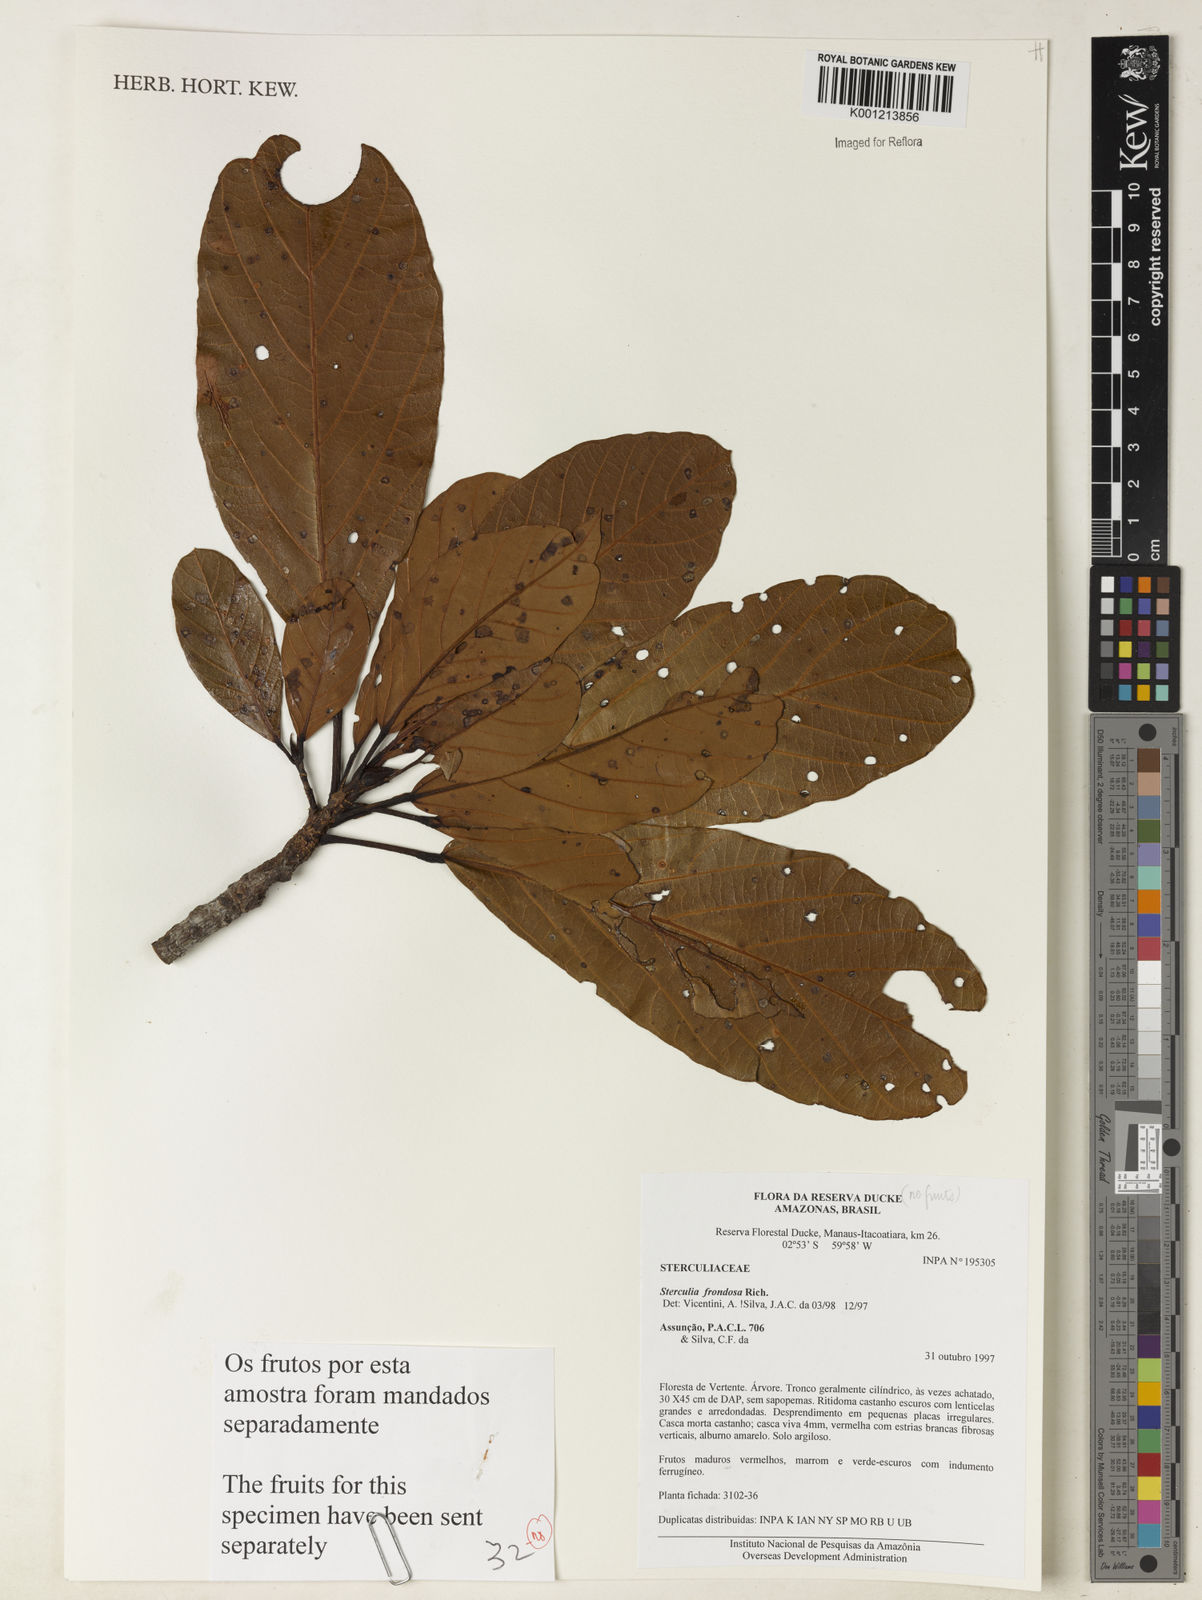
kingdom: Plantae
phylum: Tracheophyta
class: Magnoliopsida
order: Malvales
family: Malvaceae
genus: Sterculia
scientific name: Sterculia frondosa
